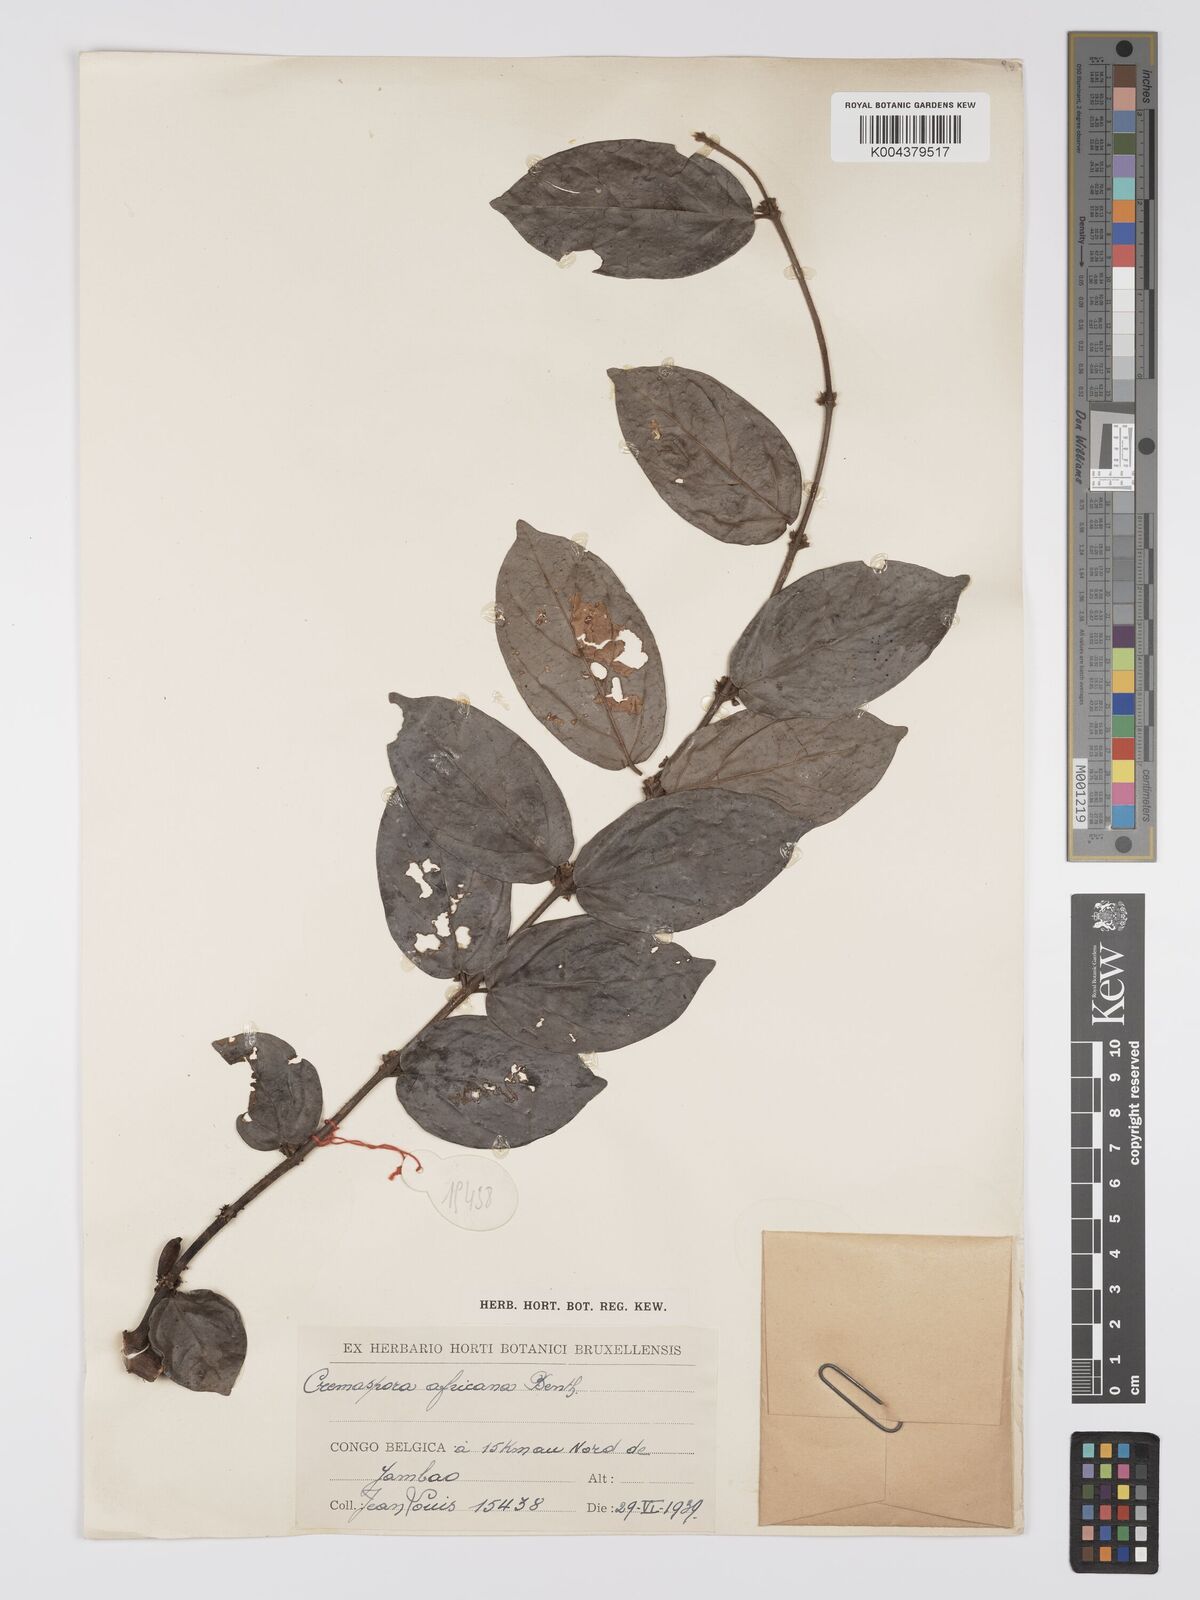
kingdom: Plantae
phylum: Tracheophyta
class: Magnoliopsida
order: Gentianales
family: Rubiaceae
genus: Cremaspora
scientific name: Cremaspora triflora
